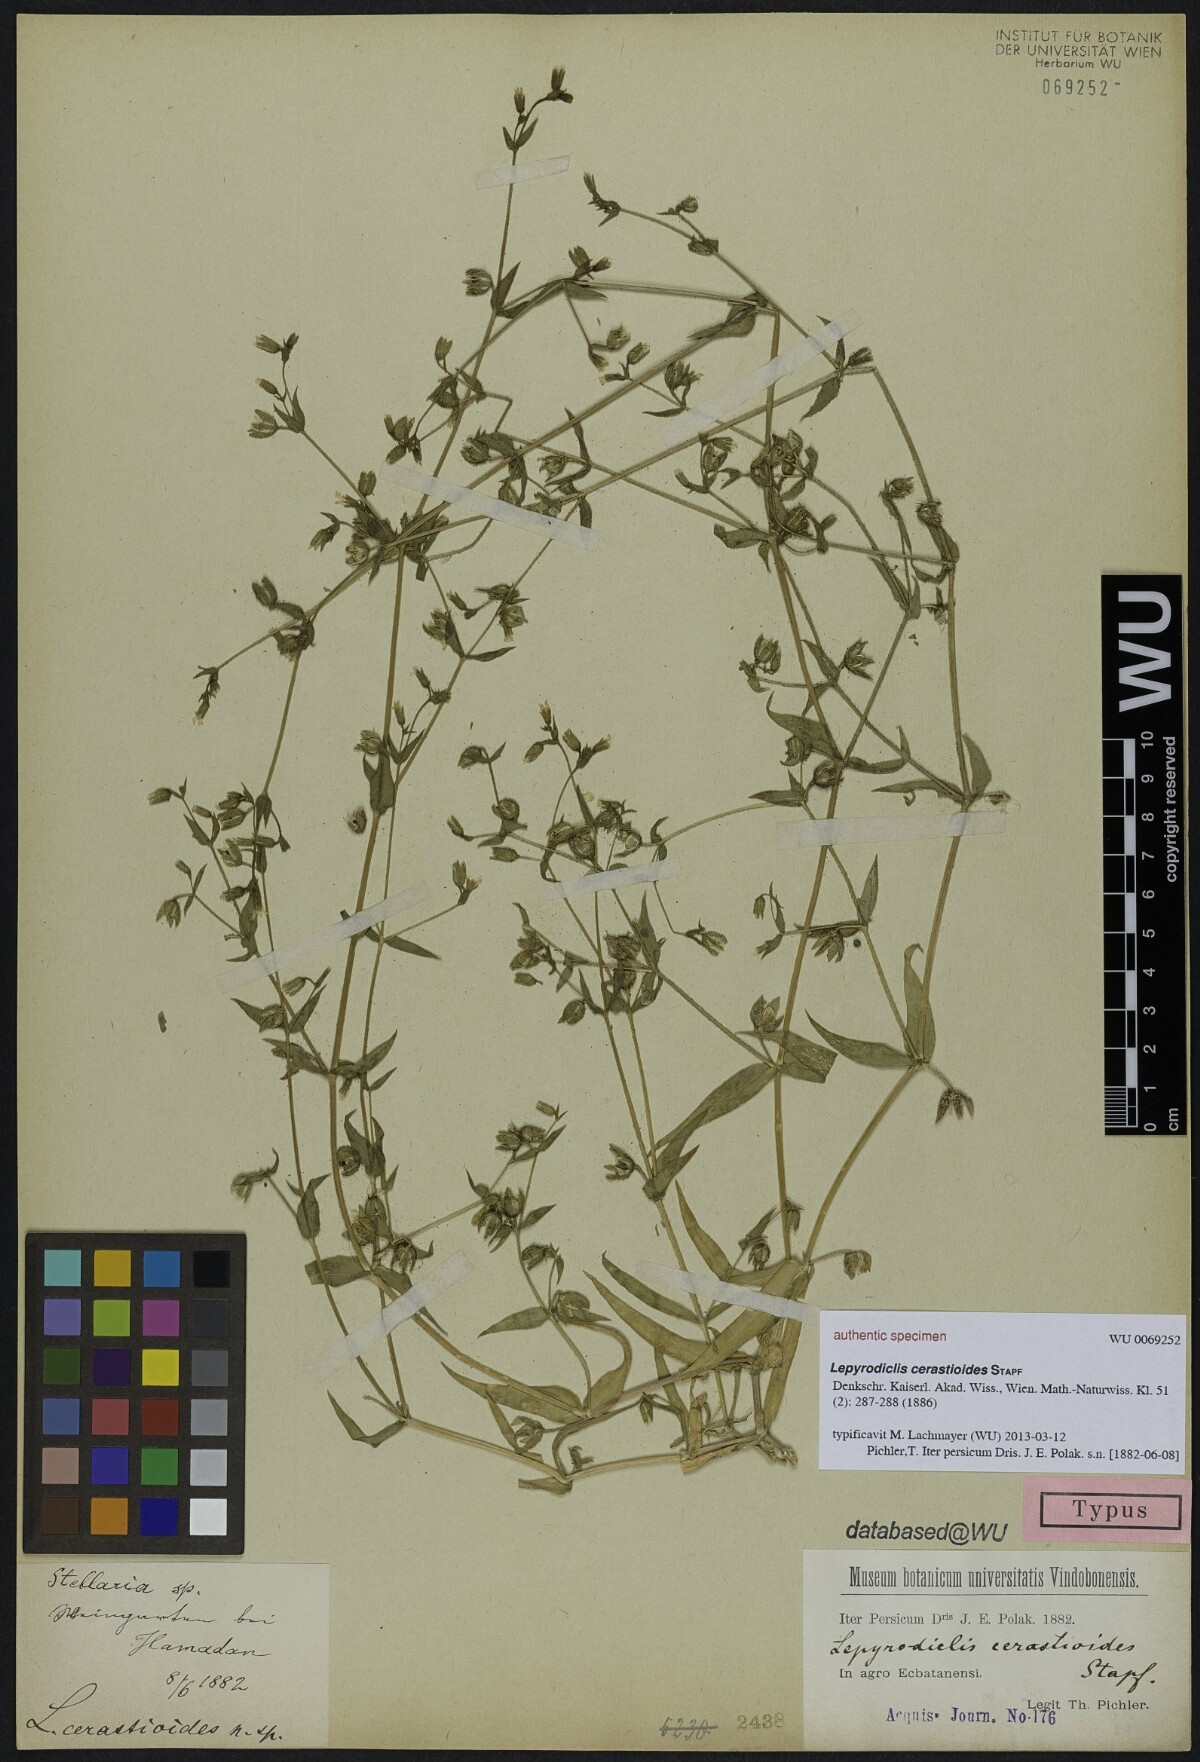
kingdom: Plantae
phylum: Tracheophyta
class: Magnoliopsida
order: Caryophyllales
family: Caryophyllaceae
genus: Lepyrodiclis
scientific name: Lepyrodiclis holosteoides
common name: False jagged-ckickweed
